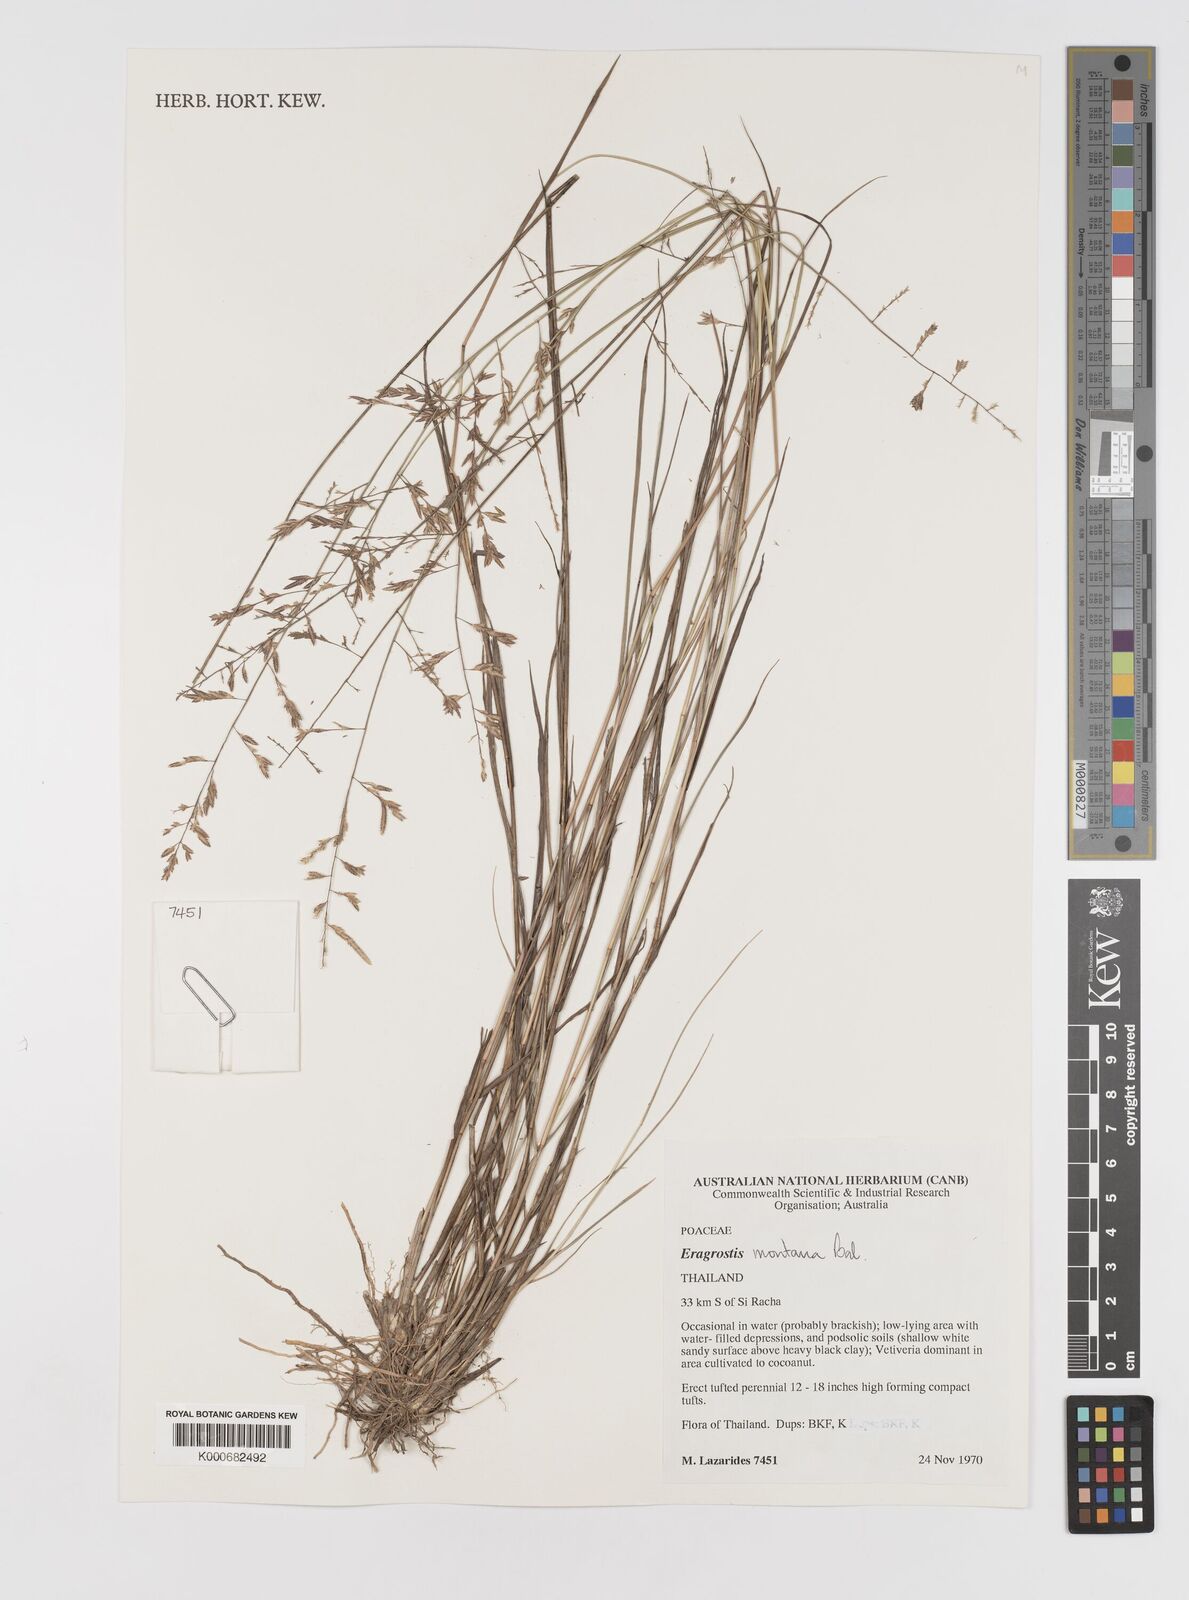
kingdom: Plantae
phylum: Tracheophyta
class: Liliopsida
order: Poales
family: Poaceae
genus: Eragrostis
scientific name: Eragrostis montana
